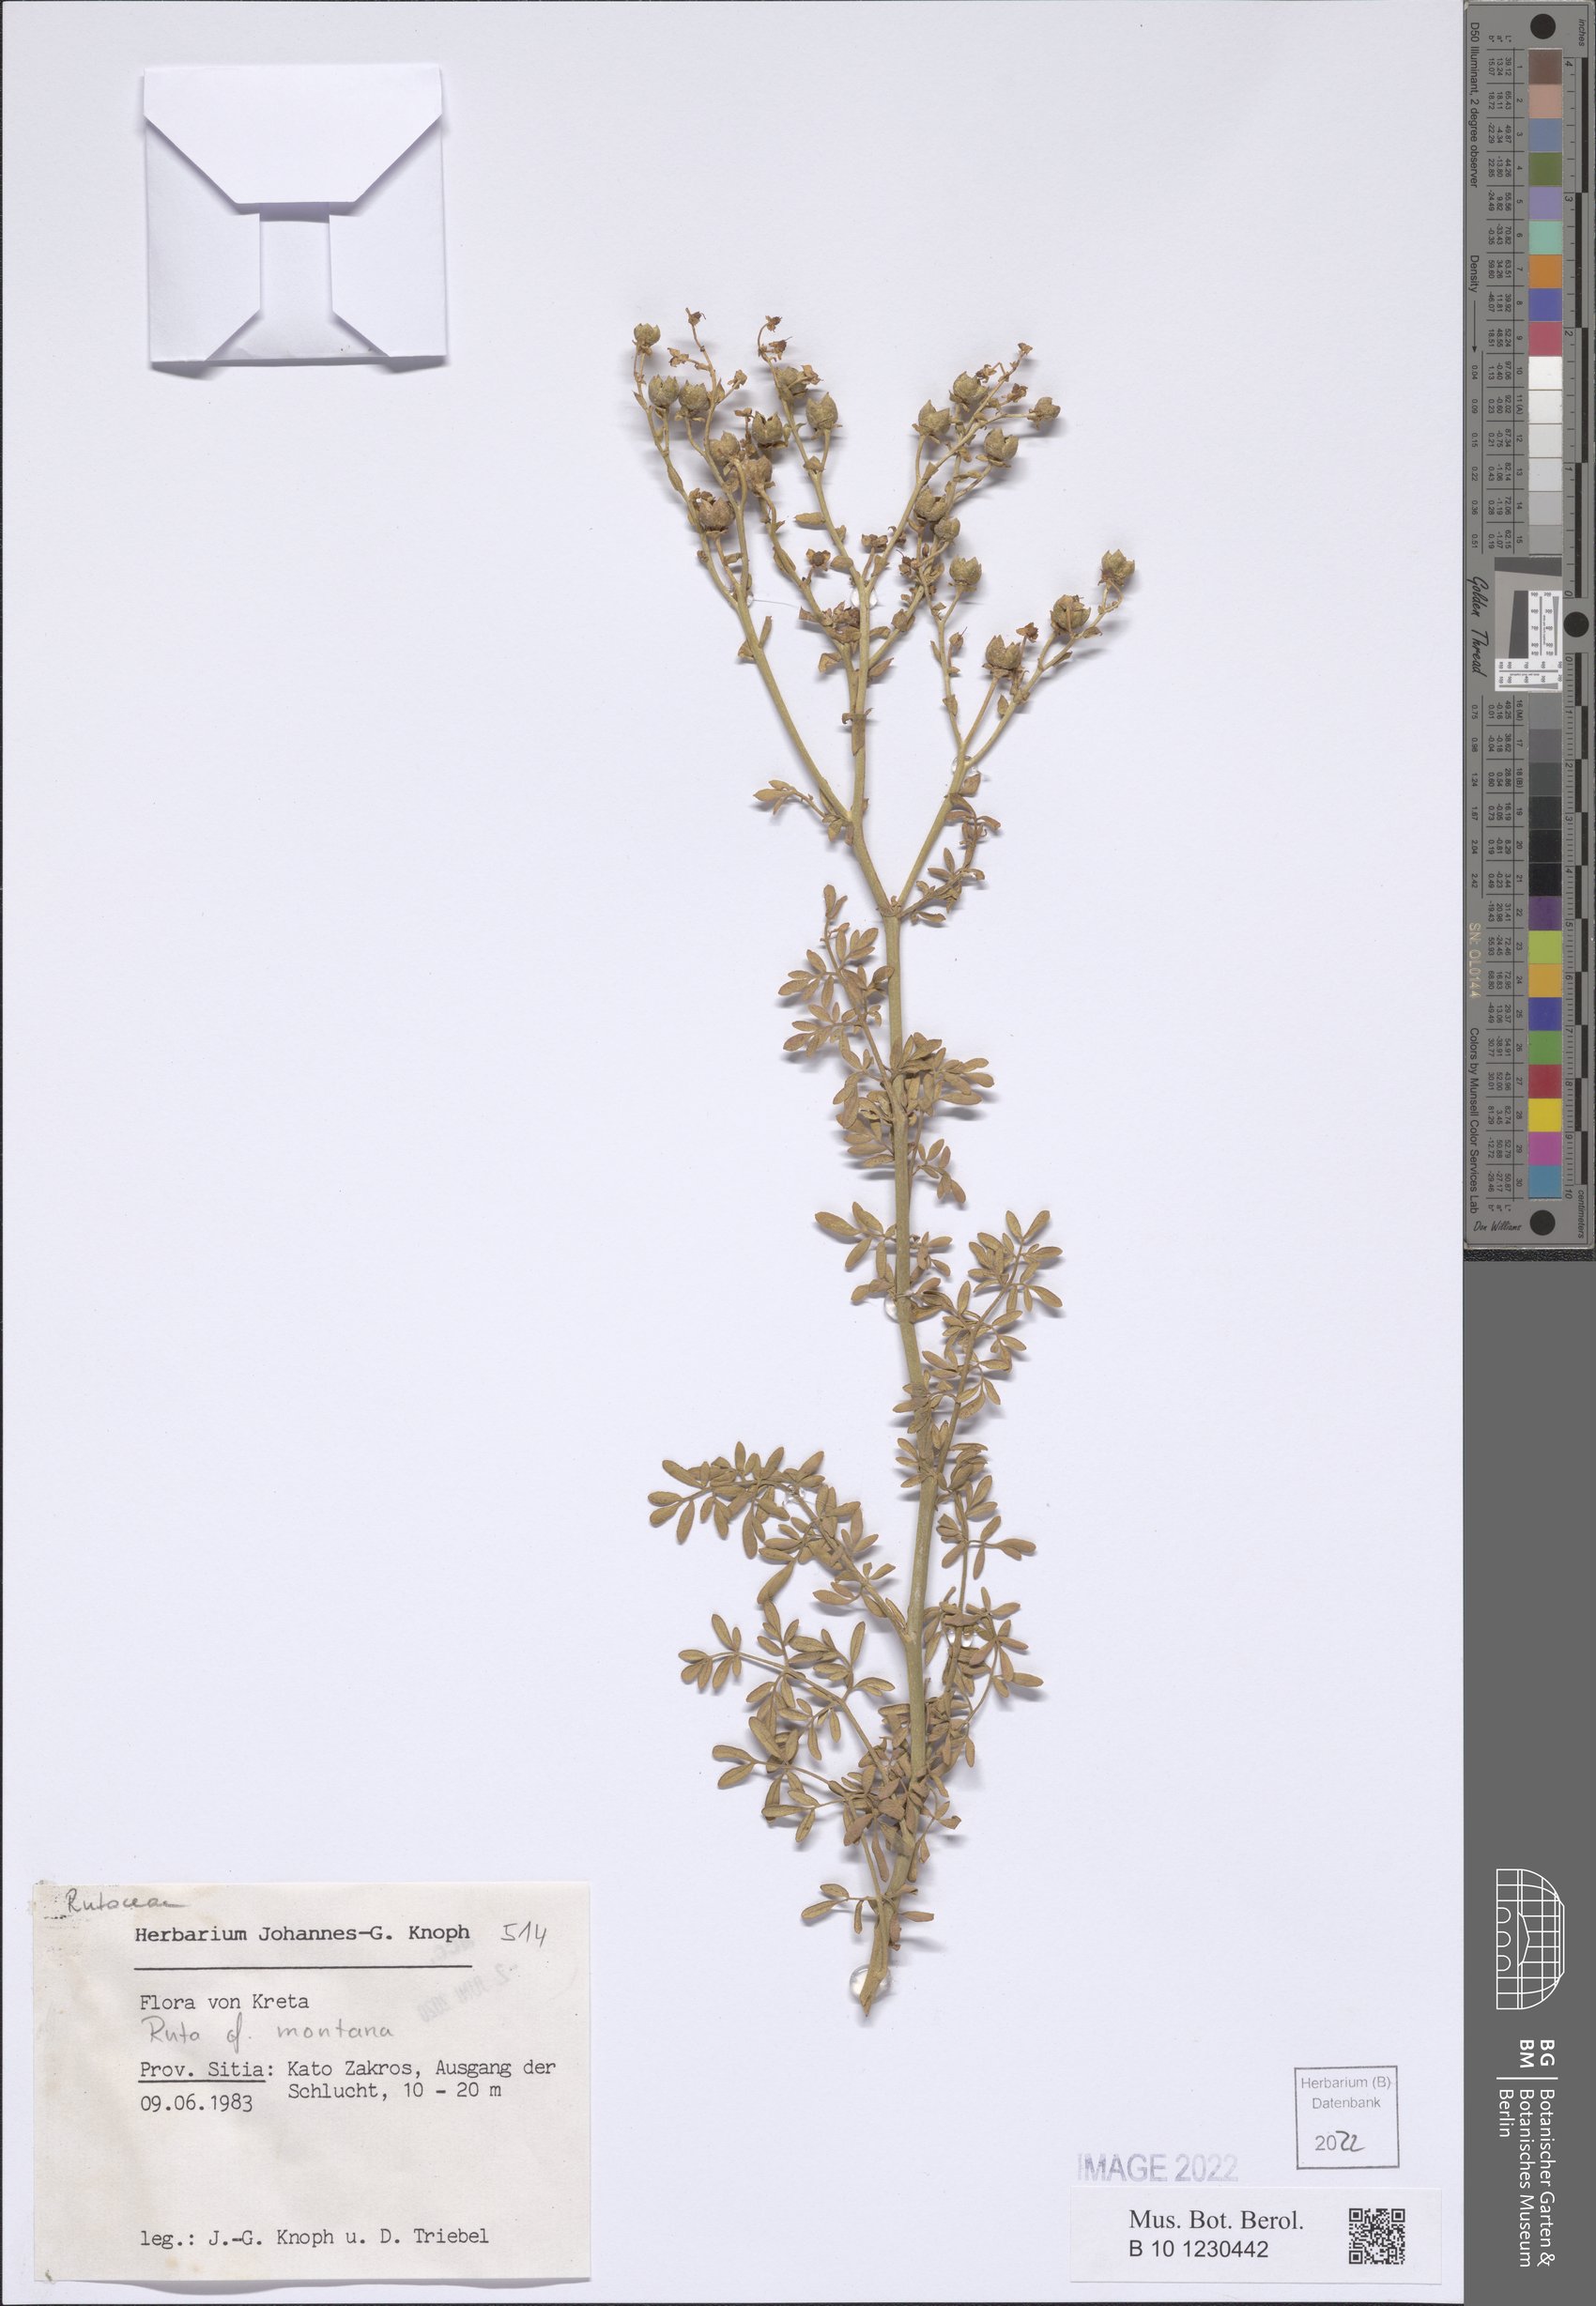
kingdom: Plantae
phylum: Tracheophyta
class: Magnoliopsida
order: Sapindales
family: Rutaceae
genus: Ruta
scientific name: Ruta montana
